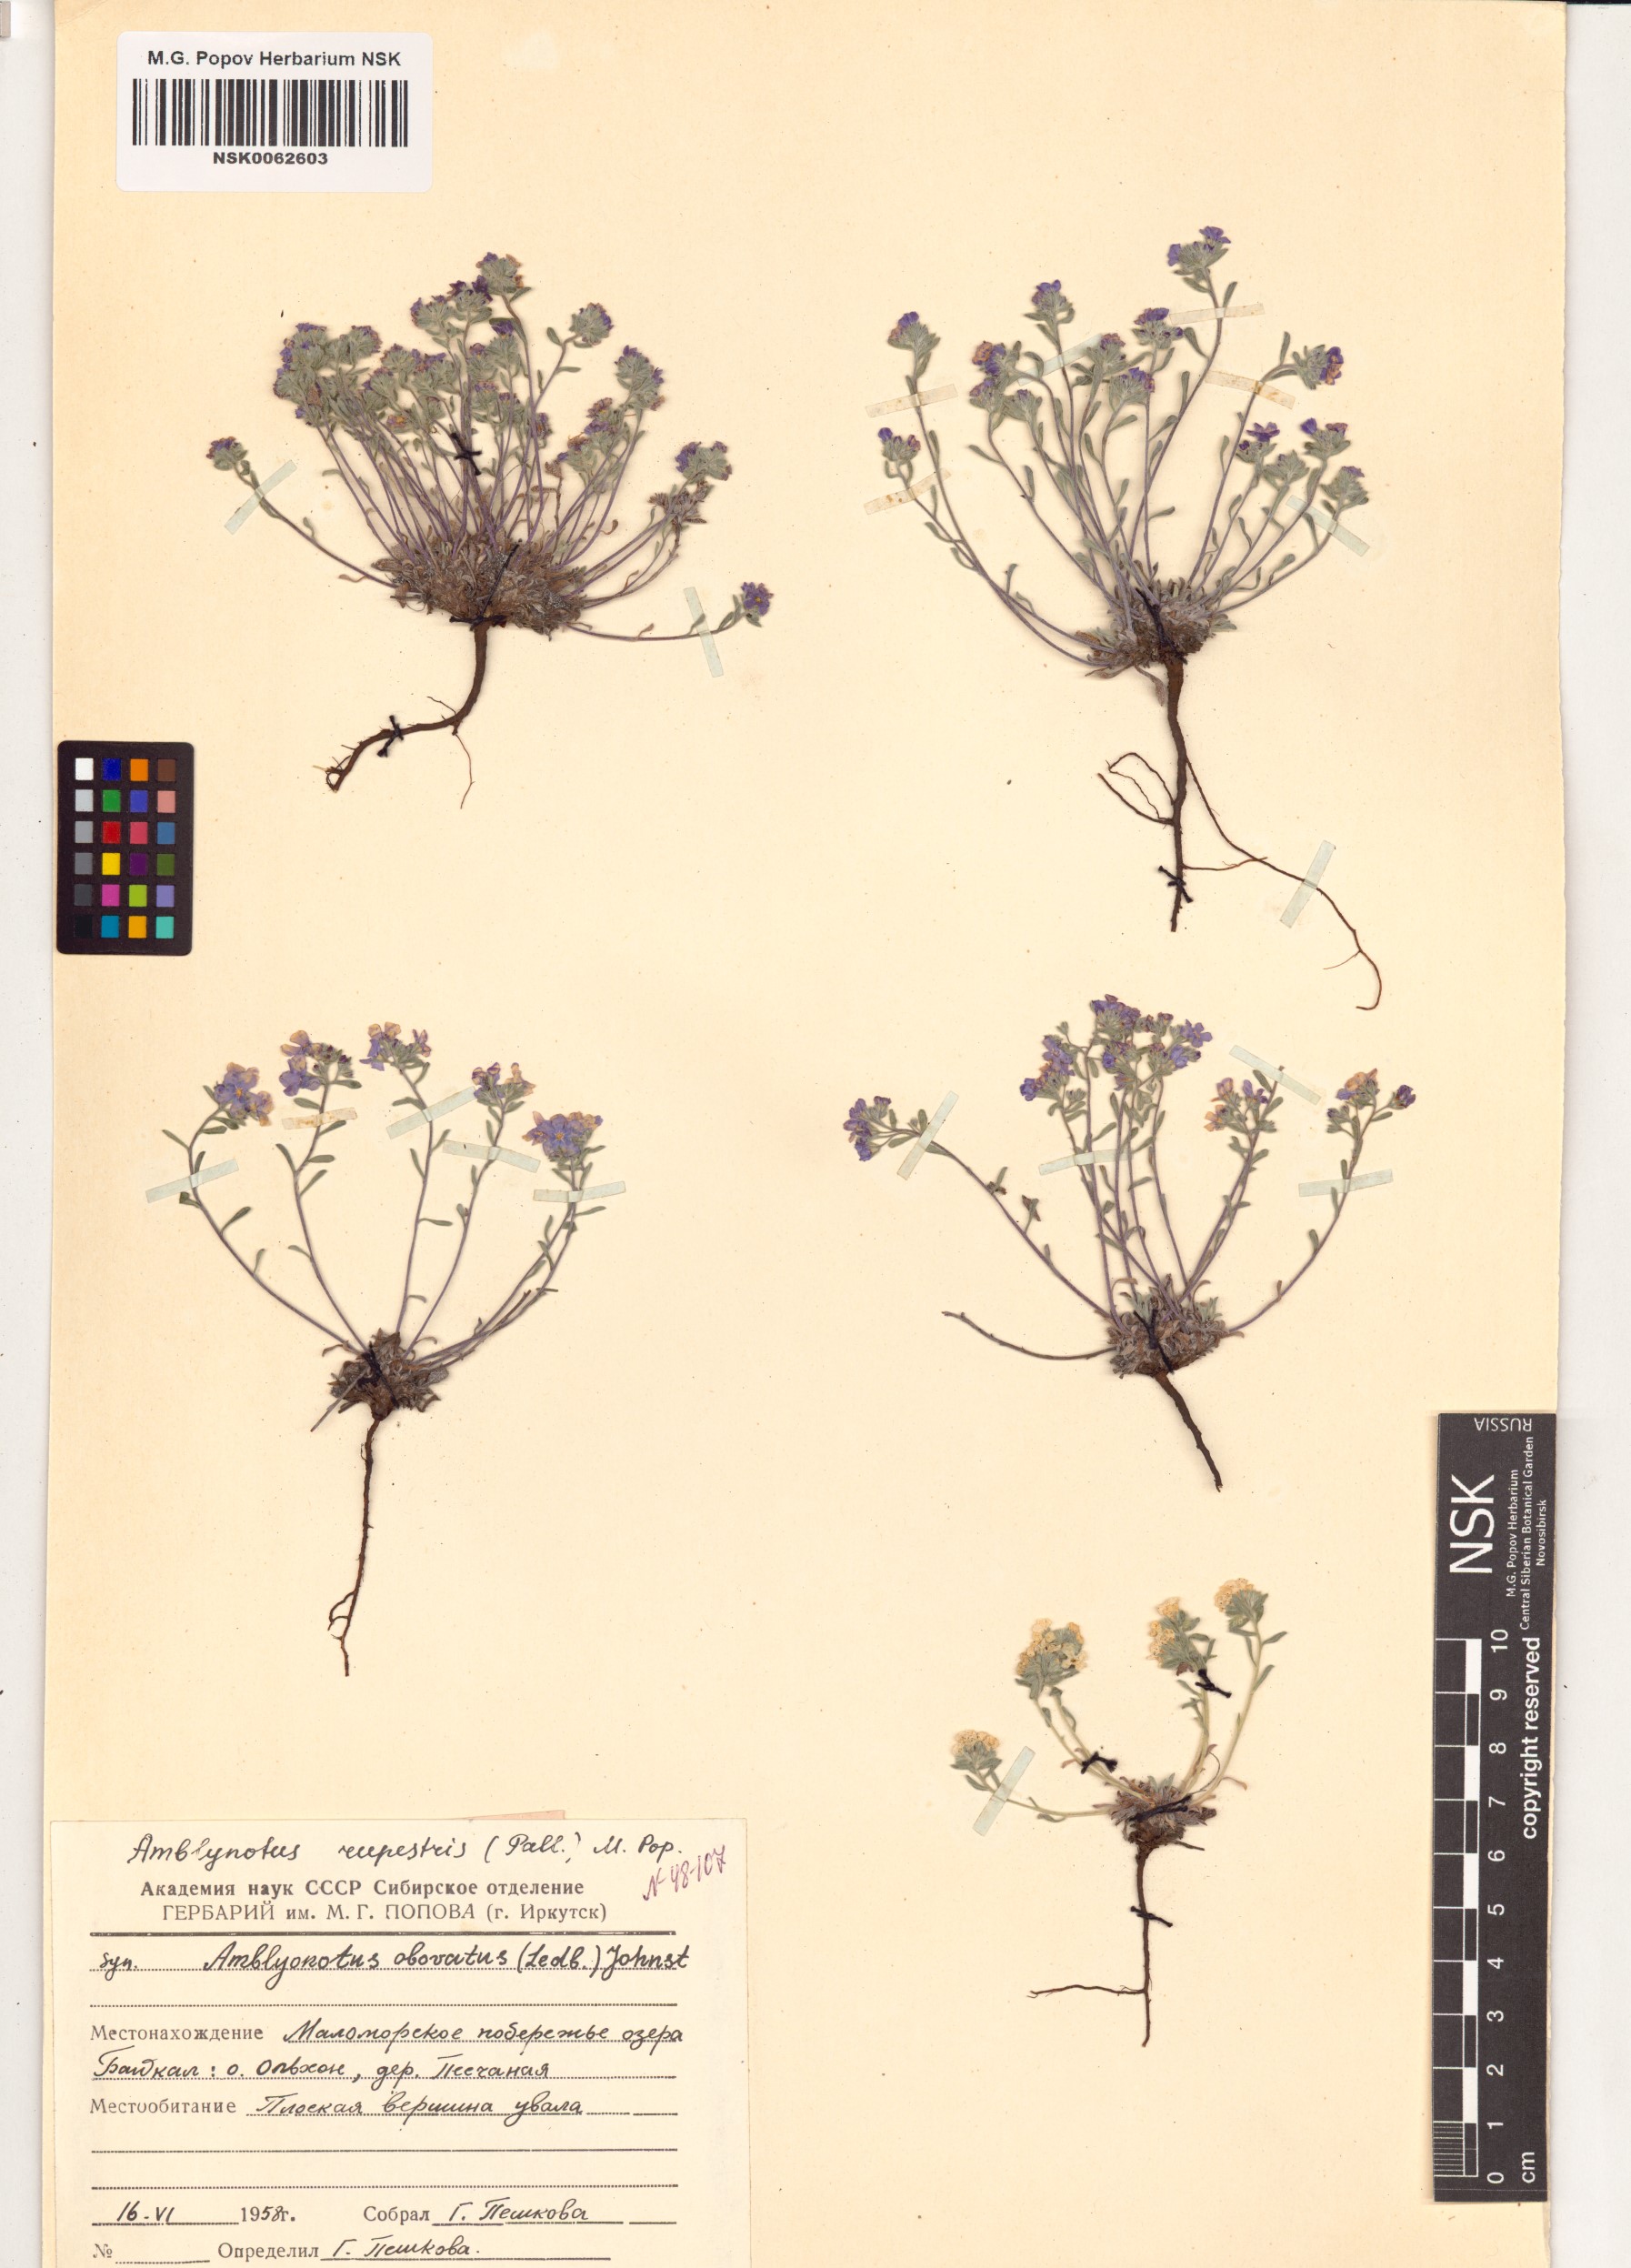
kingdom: Plantae
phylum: Tracheophyta
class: Magnoliopsida
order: Boraginales
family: Boraginaceae
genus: Eritrichium
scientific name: Eritrichium rupestre
